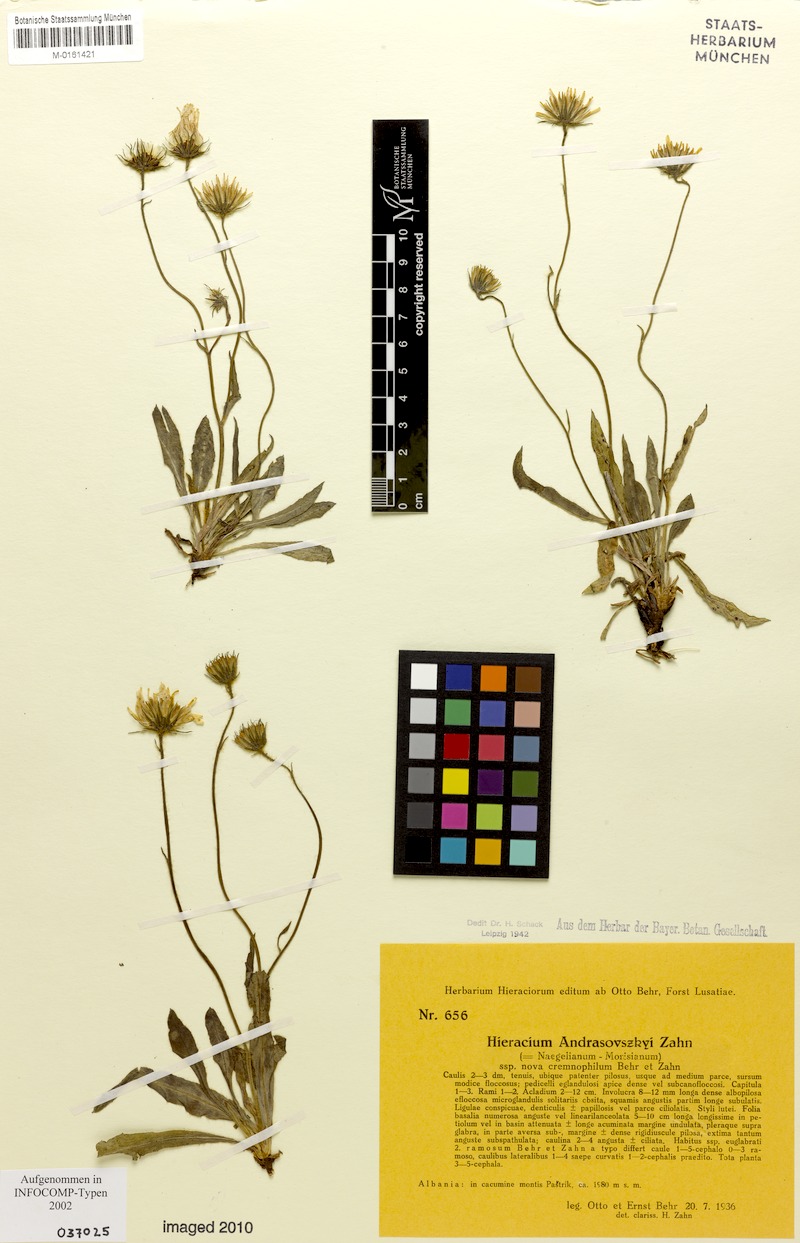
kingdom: Plantae
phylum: Tracheophyta
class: Magnoliopsida
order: Asterales
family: Asteraceae
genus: Hieracium
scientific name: Hieracium andrasovszkyi
